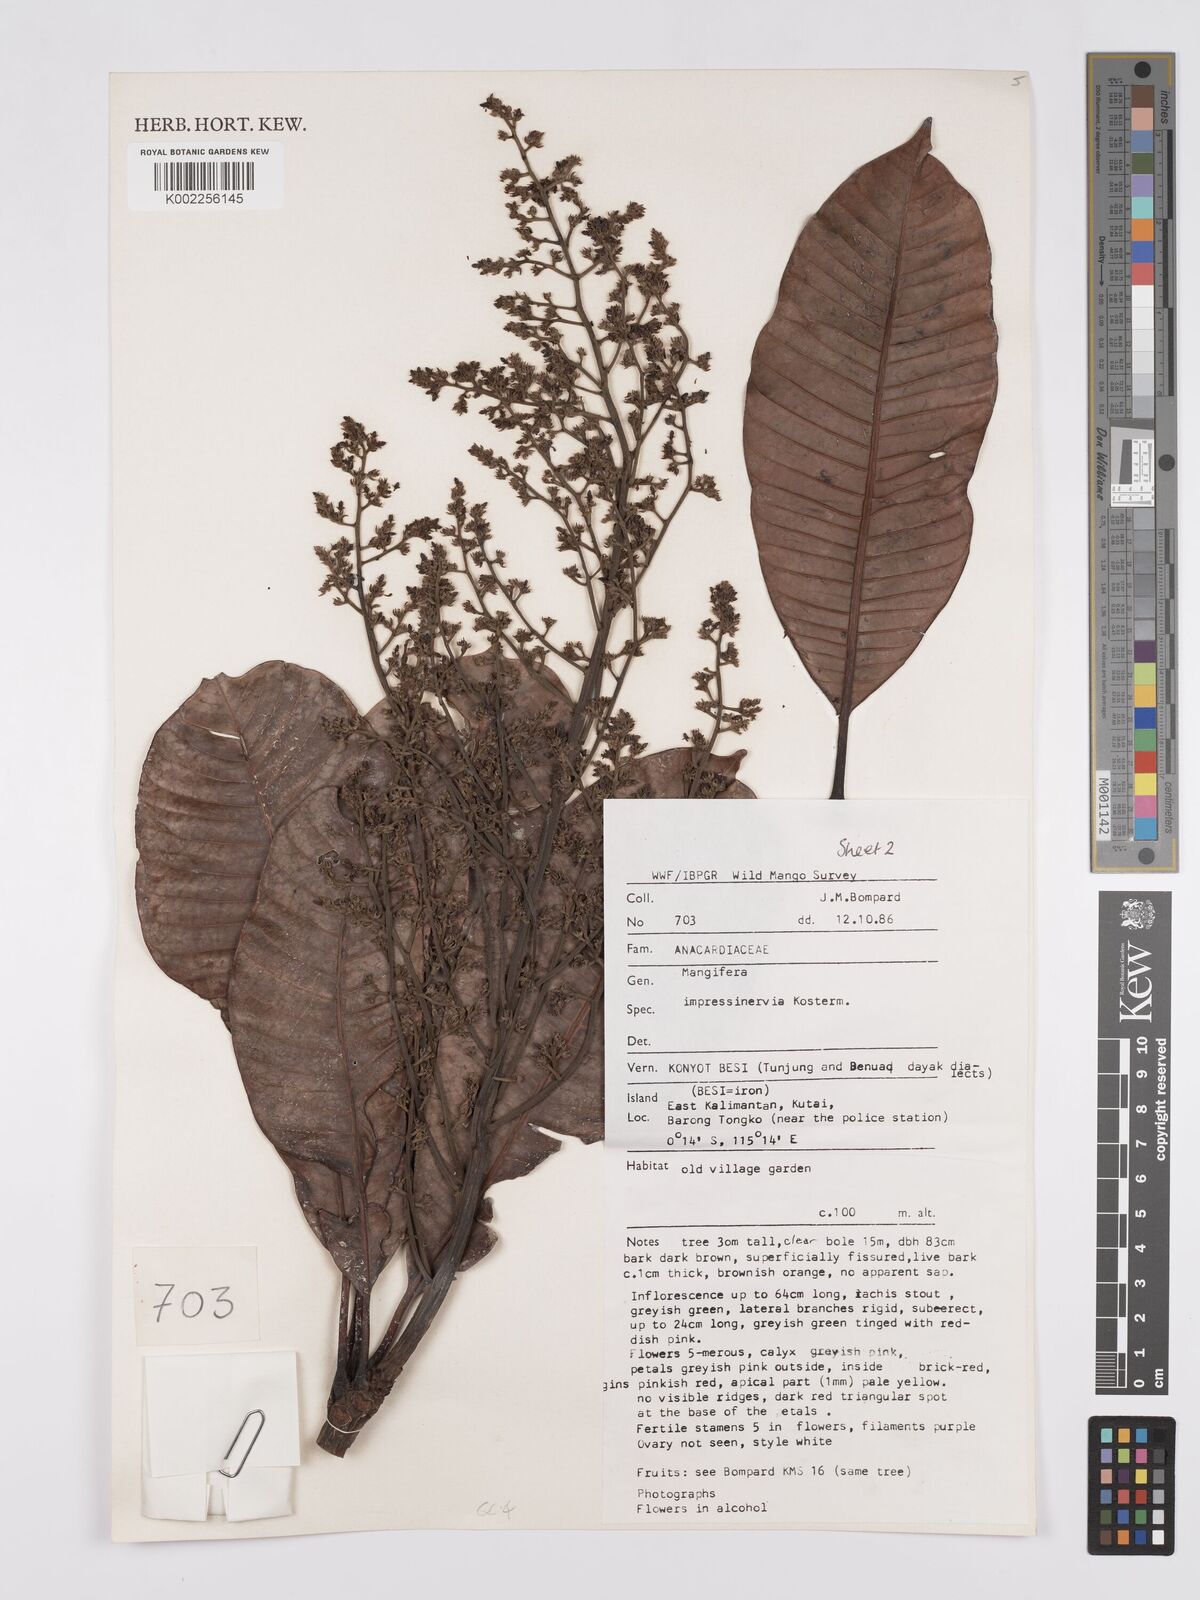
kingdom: Plantae
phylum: Tracheophyta
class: Magnoliopsida
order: Sapindales
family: Anacardiaceae
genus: Mangifera
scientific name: Mangifera
